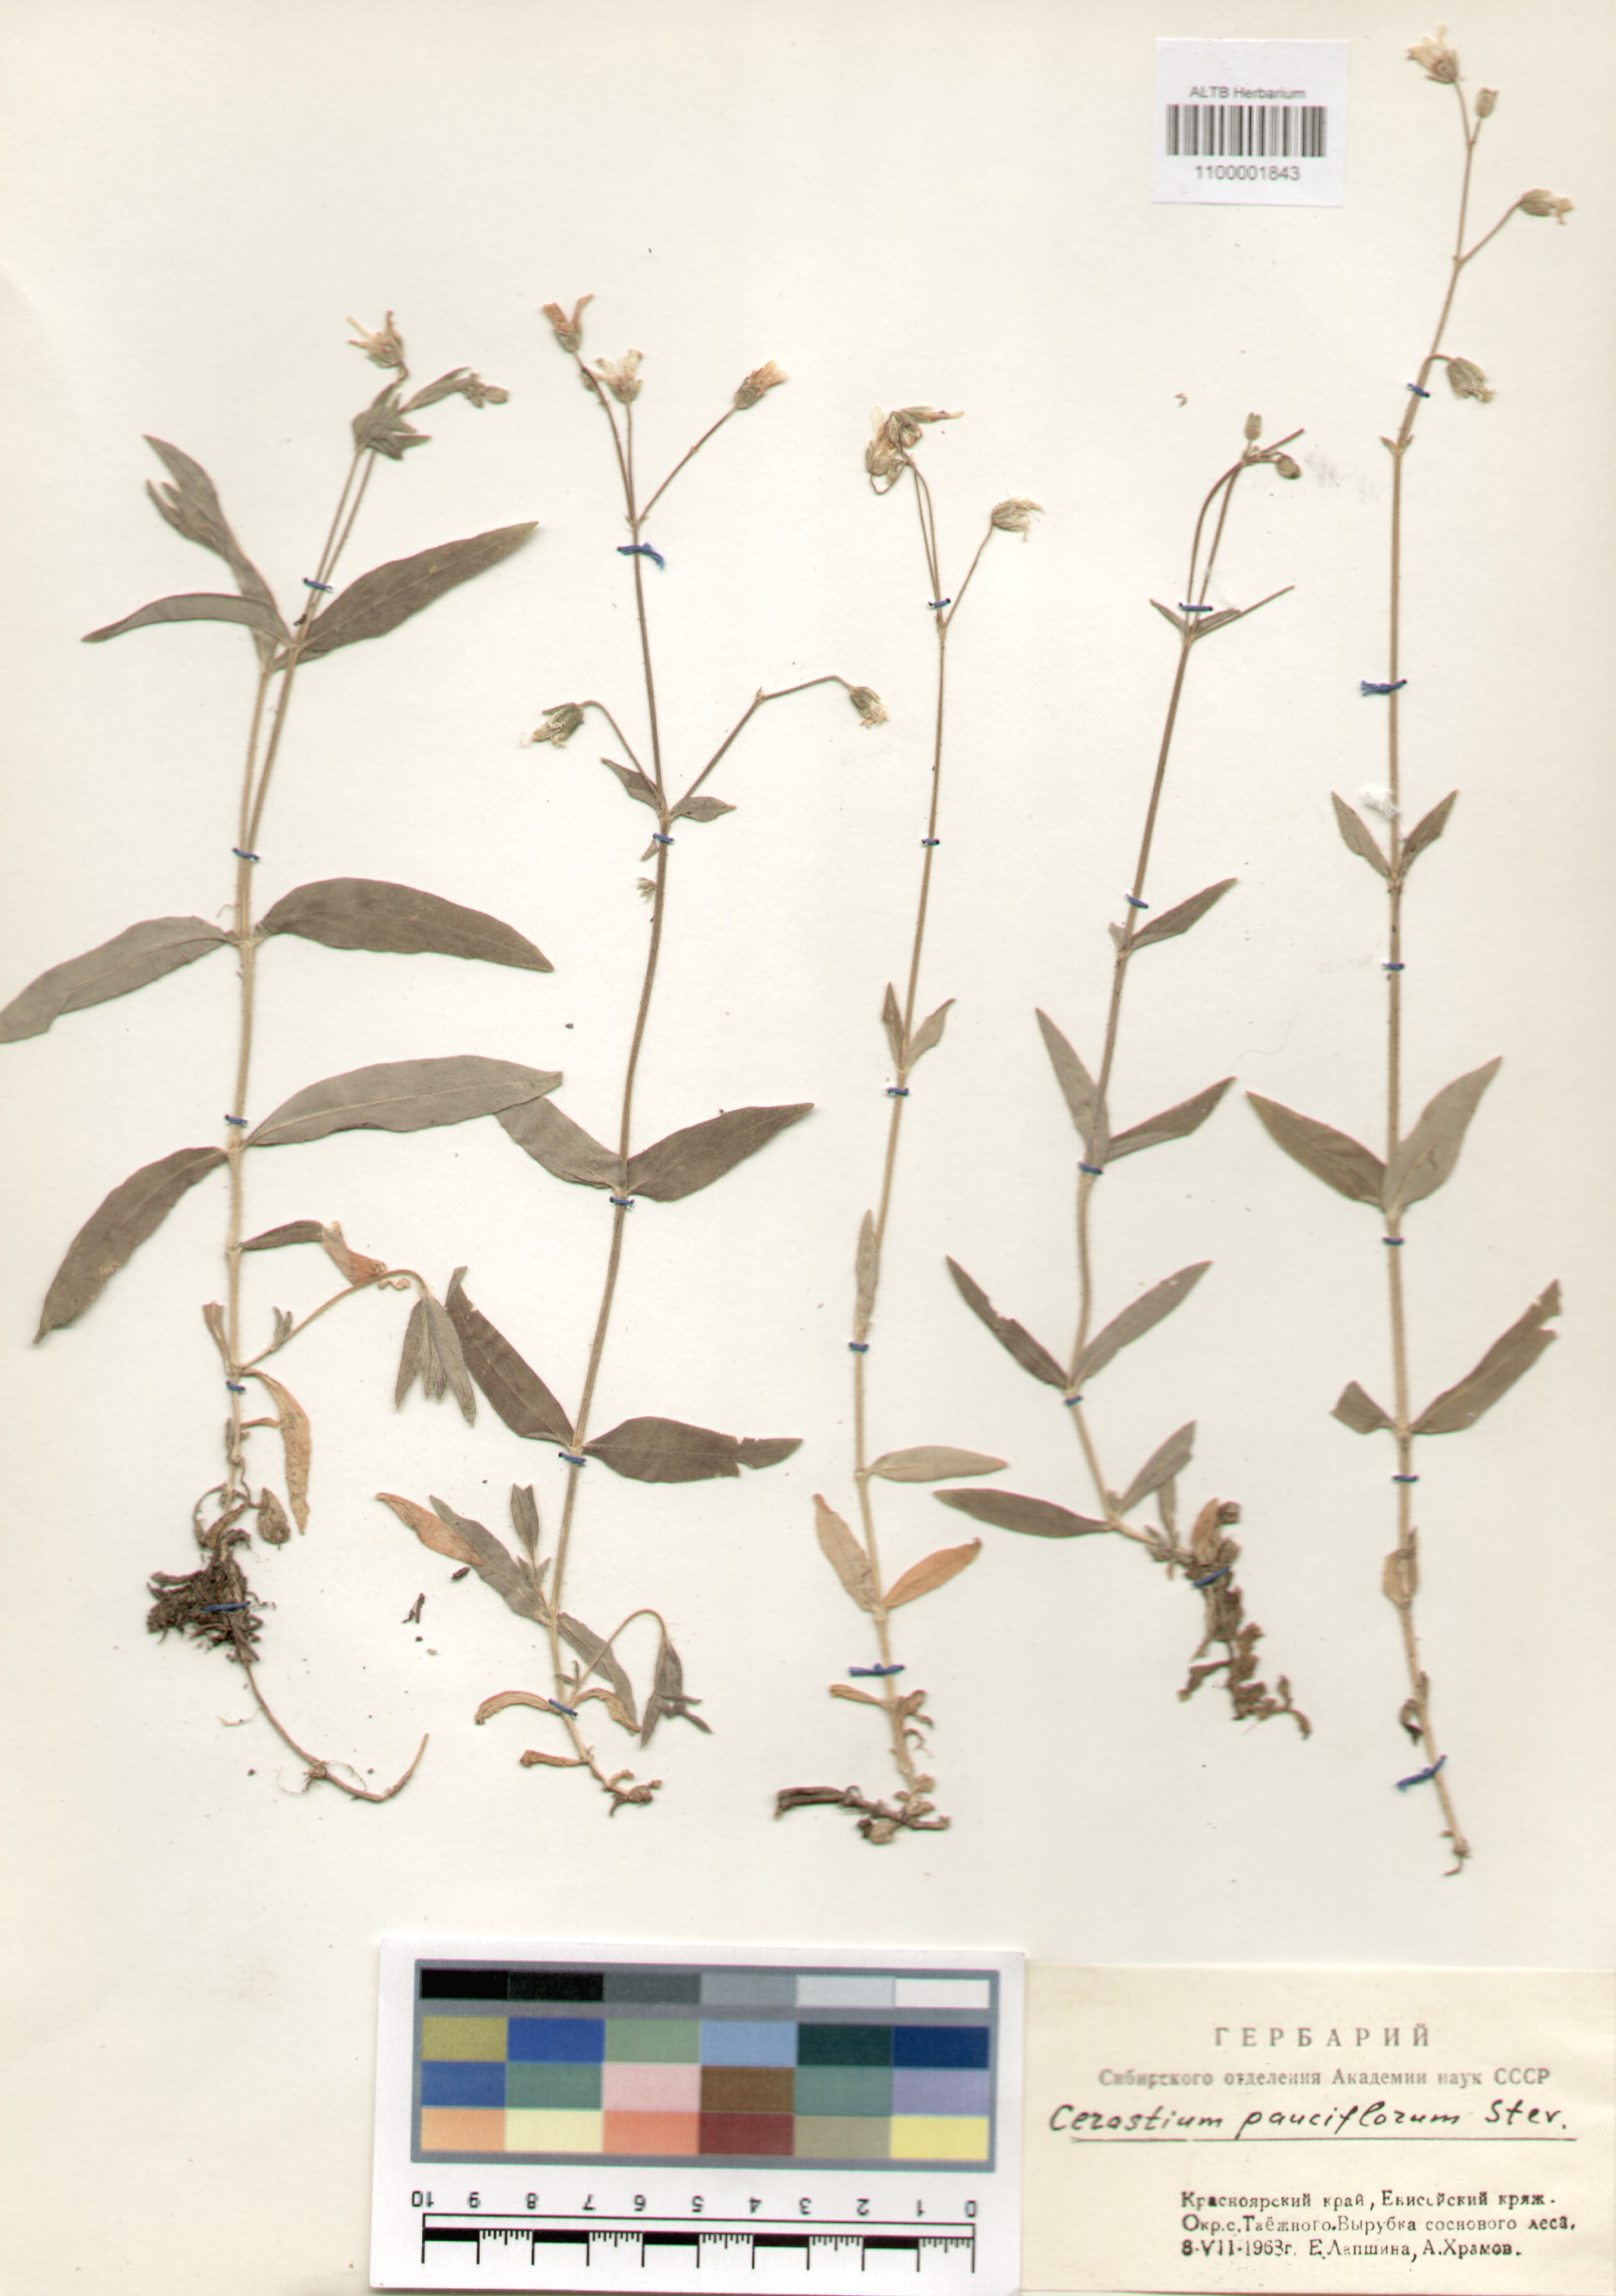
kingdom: Plantae
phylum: Tracheophyta
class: Magnoliopsida
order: Caryophyllales
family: Caryophyllaceae
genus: Cerastium
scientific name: Cerastium pauciflorum
